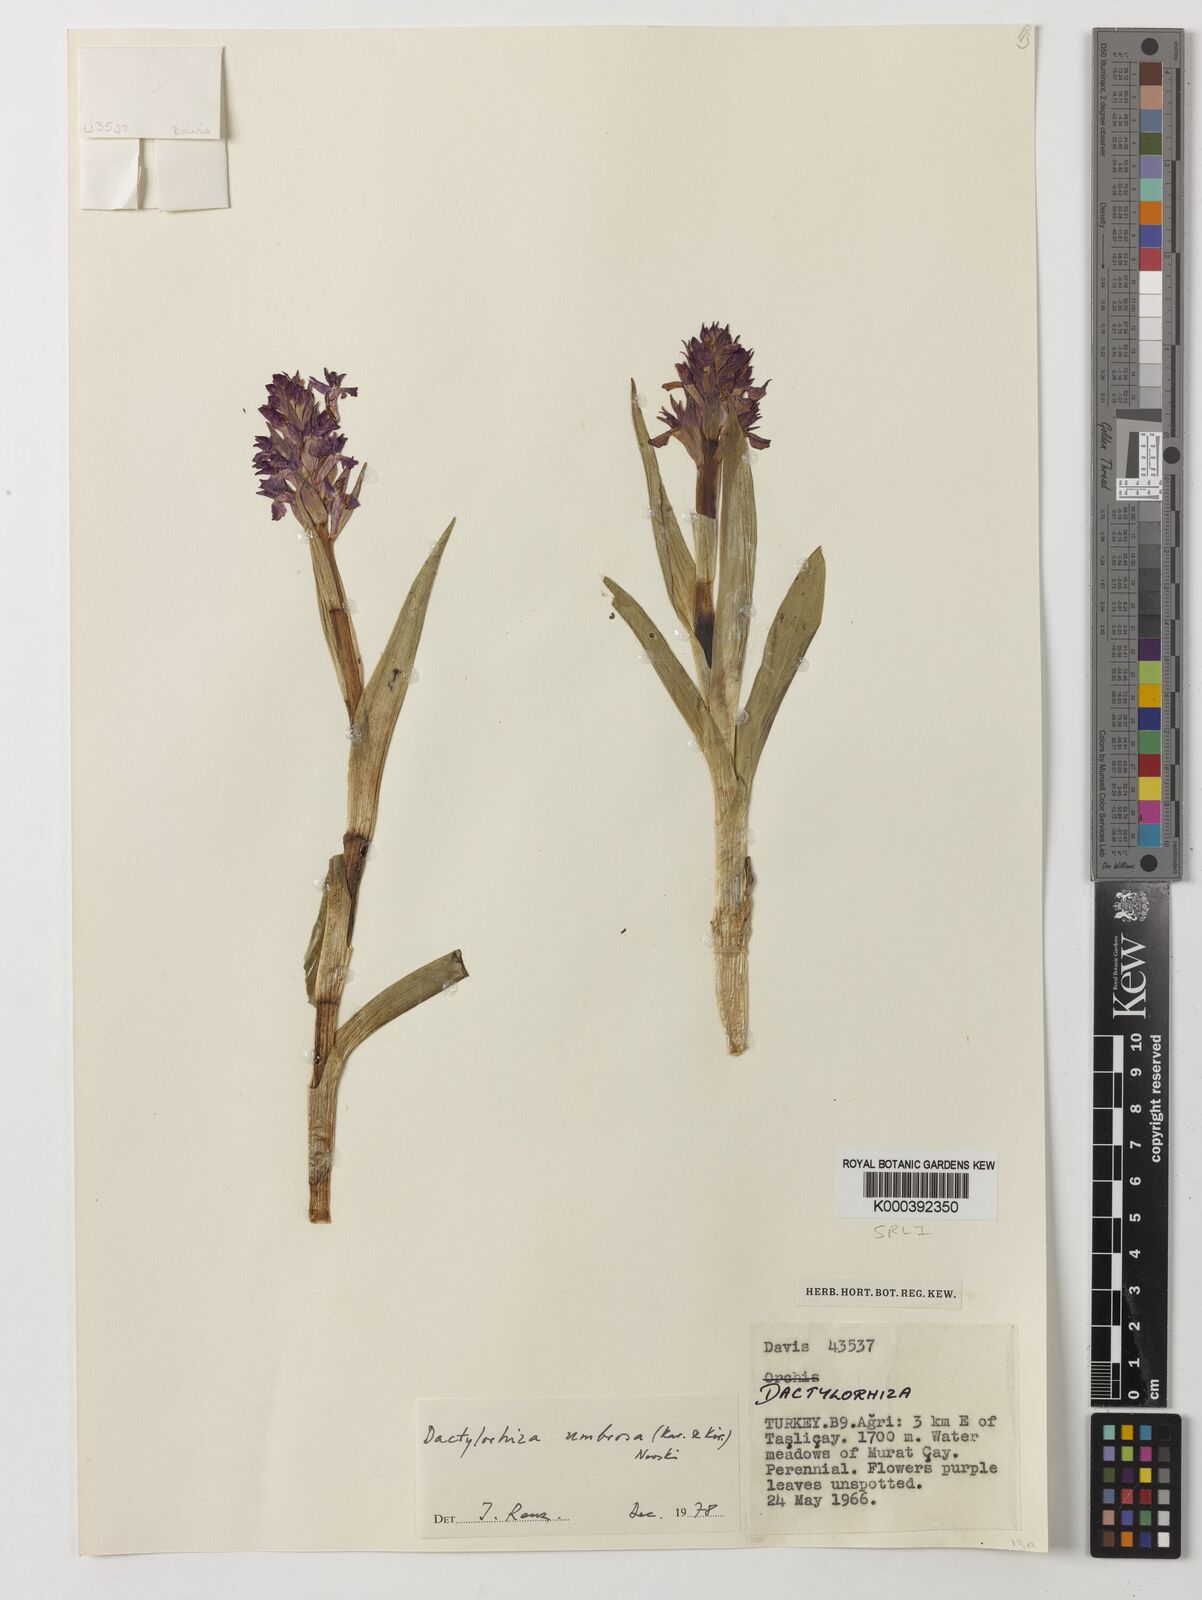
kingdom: Plantae
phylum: Tracheophyta
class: Liliopsida
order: Asparagales
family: Orchidaceae
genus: Dactylorhiza
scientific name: Dactylorhiza
